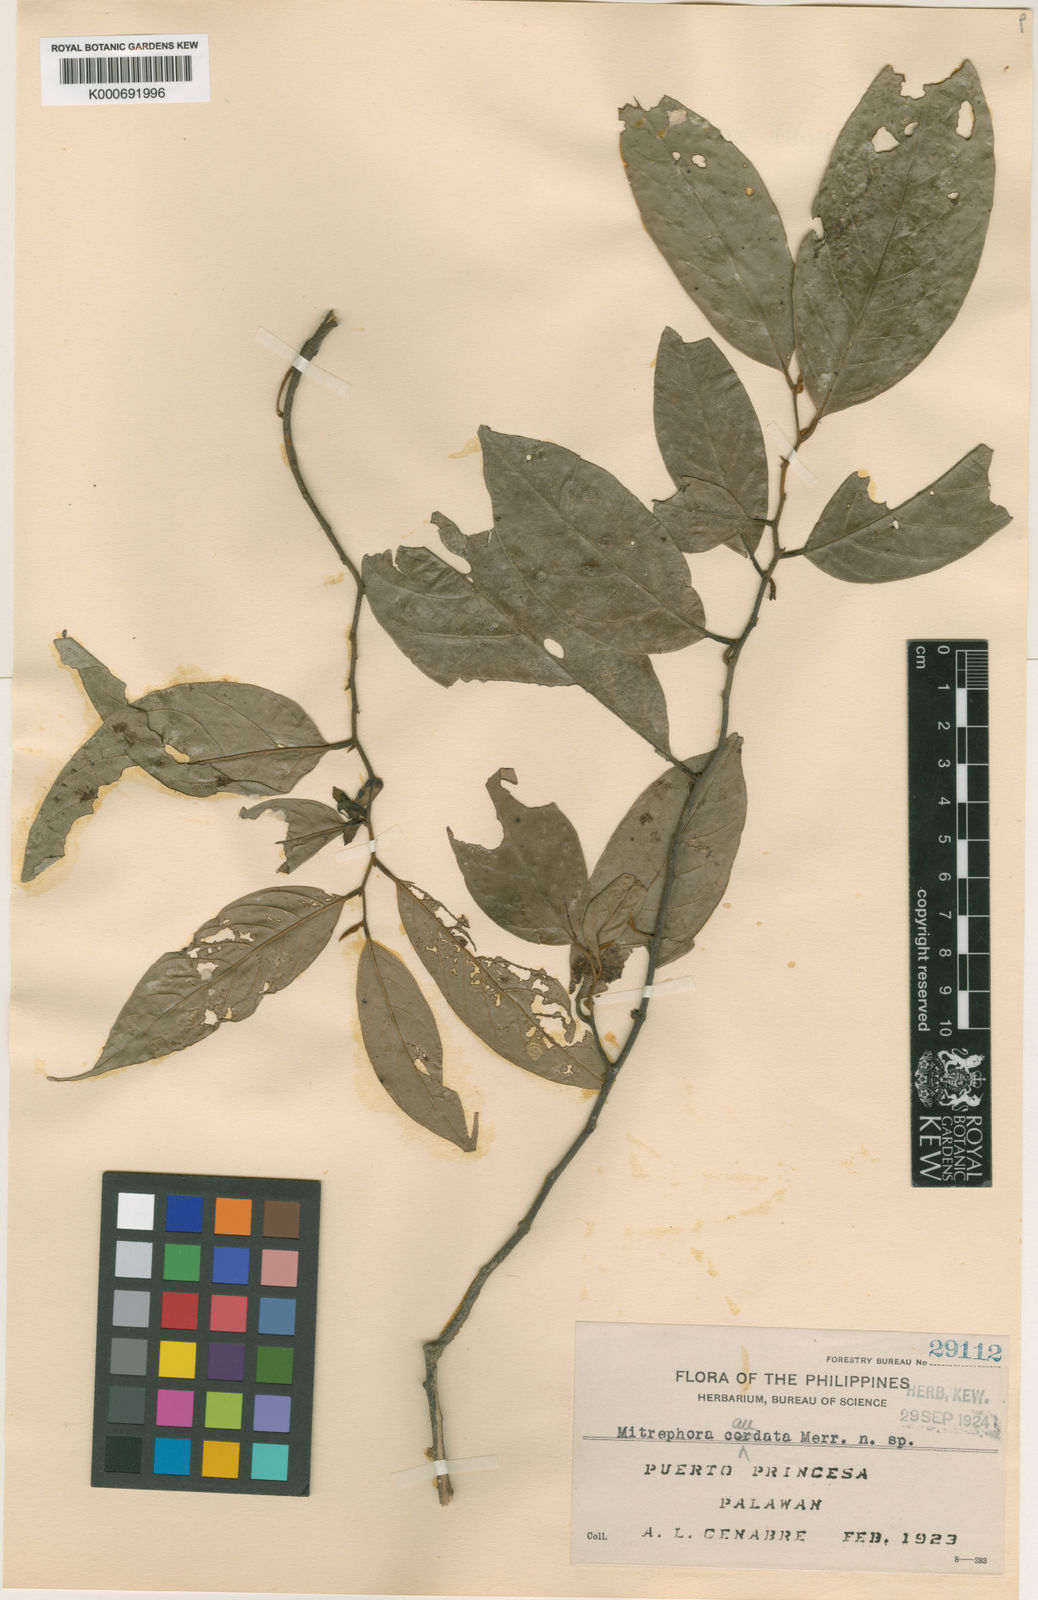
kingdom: Plantae
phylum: Tracheophyta
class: Magnoliopsida
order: Magnoliales
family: Annonaceae
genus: Mitrephora
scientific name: Mitrephora lanotan
